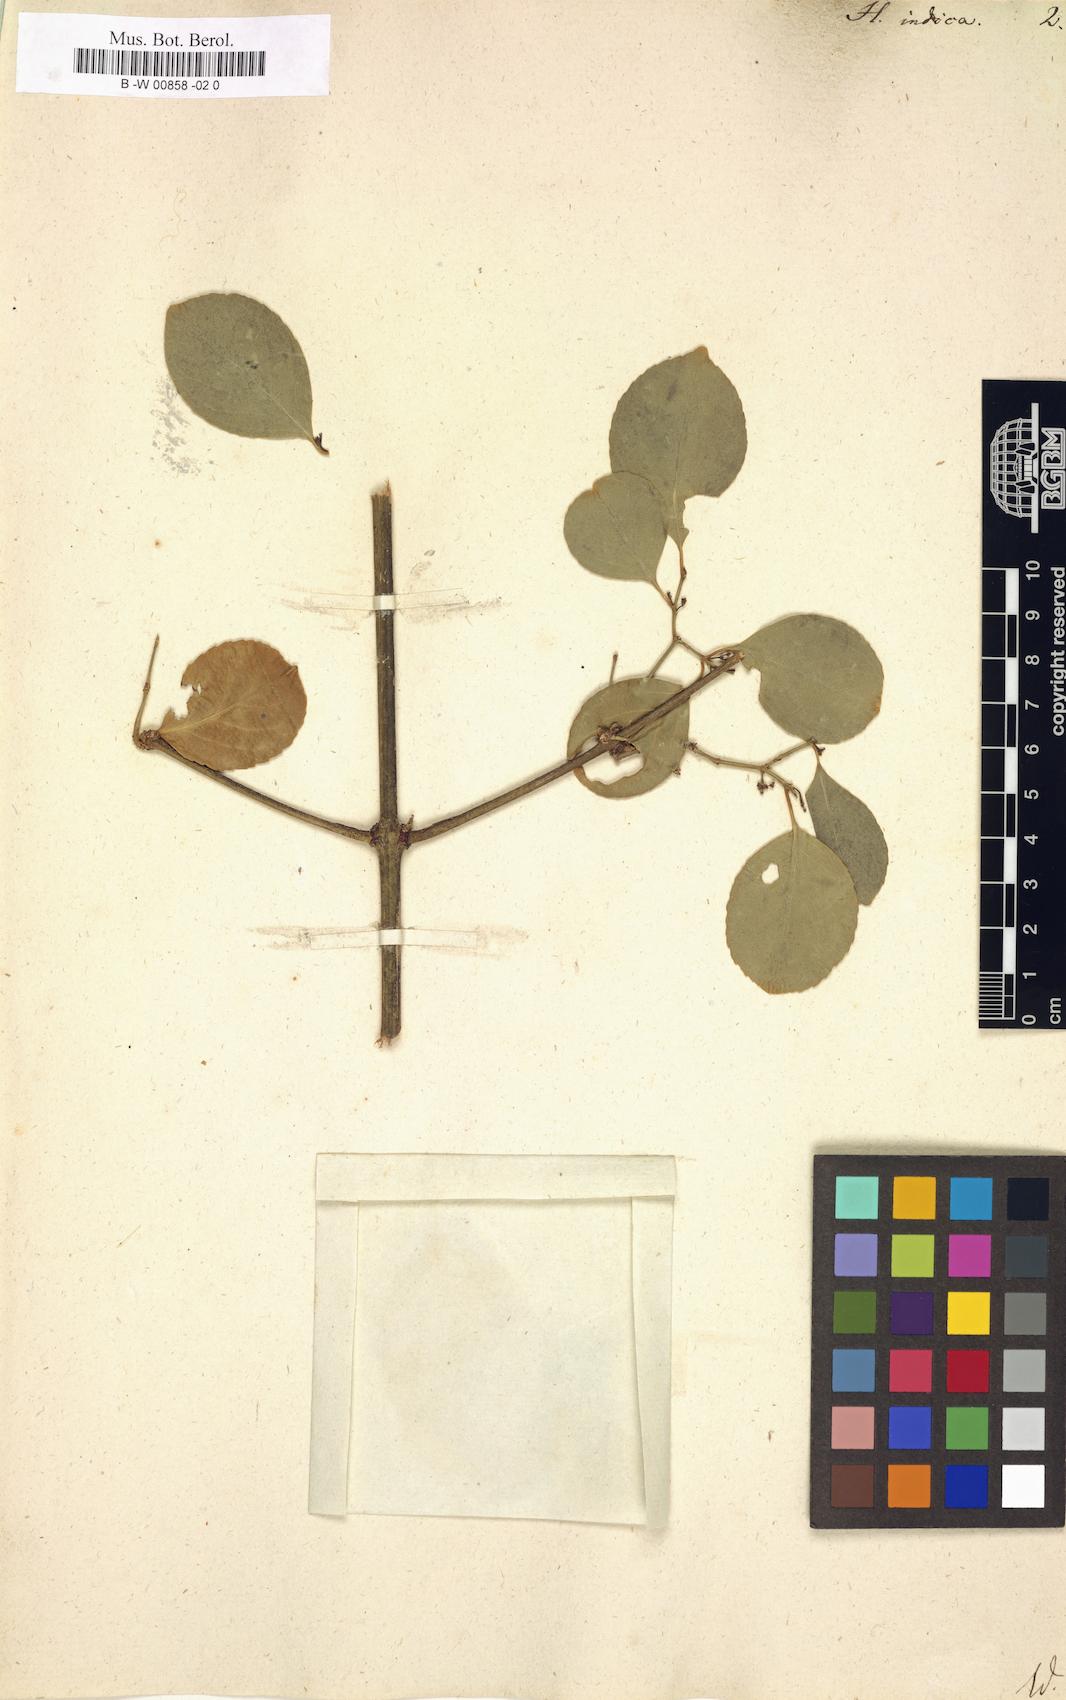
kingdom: Plantae
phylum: Tracheophyta
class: Magnoliopsida
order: Celastrales
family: Celastraceae
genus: Reissantia
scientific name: Reissantia indica
